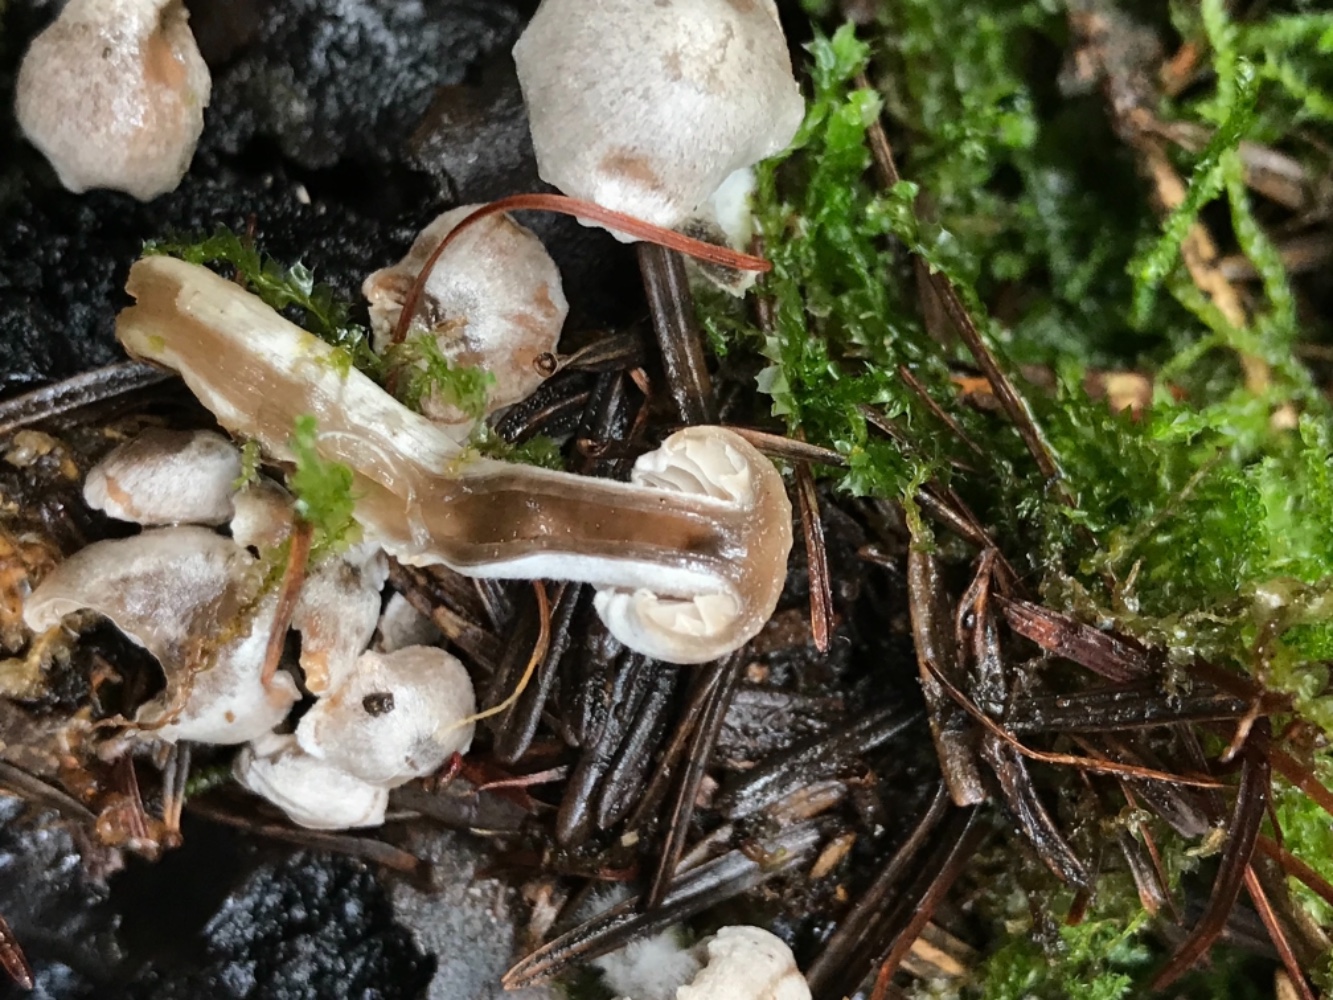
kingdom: Fungi
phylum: Basidiomycota
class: Agaricomycetes
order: Agaricales
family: Lyophyllaceae
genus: Asterophora
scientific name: Asterophora parasitica
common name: grå snyltehat
